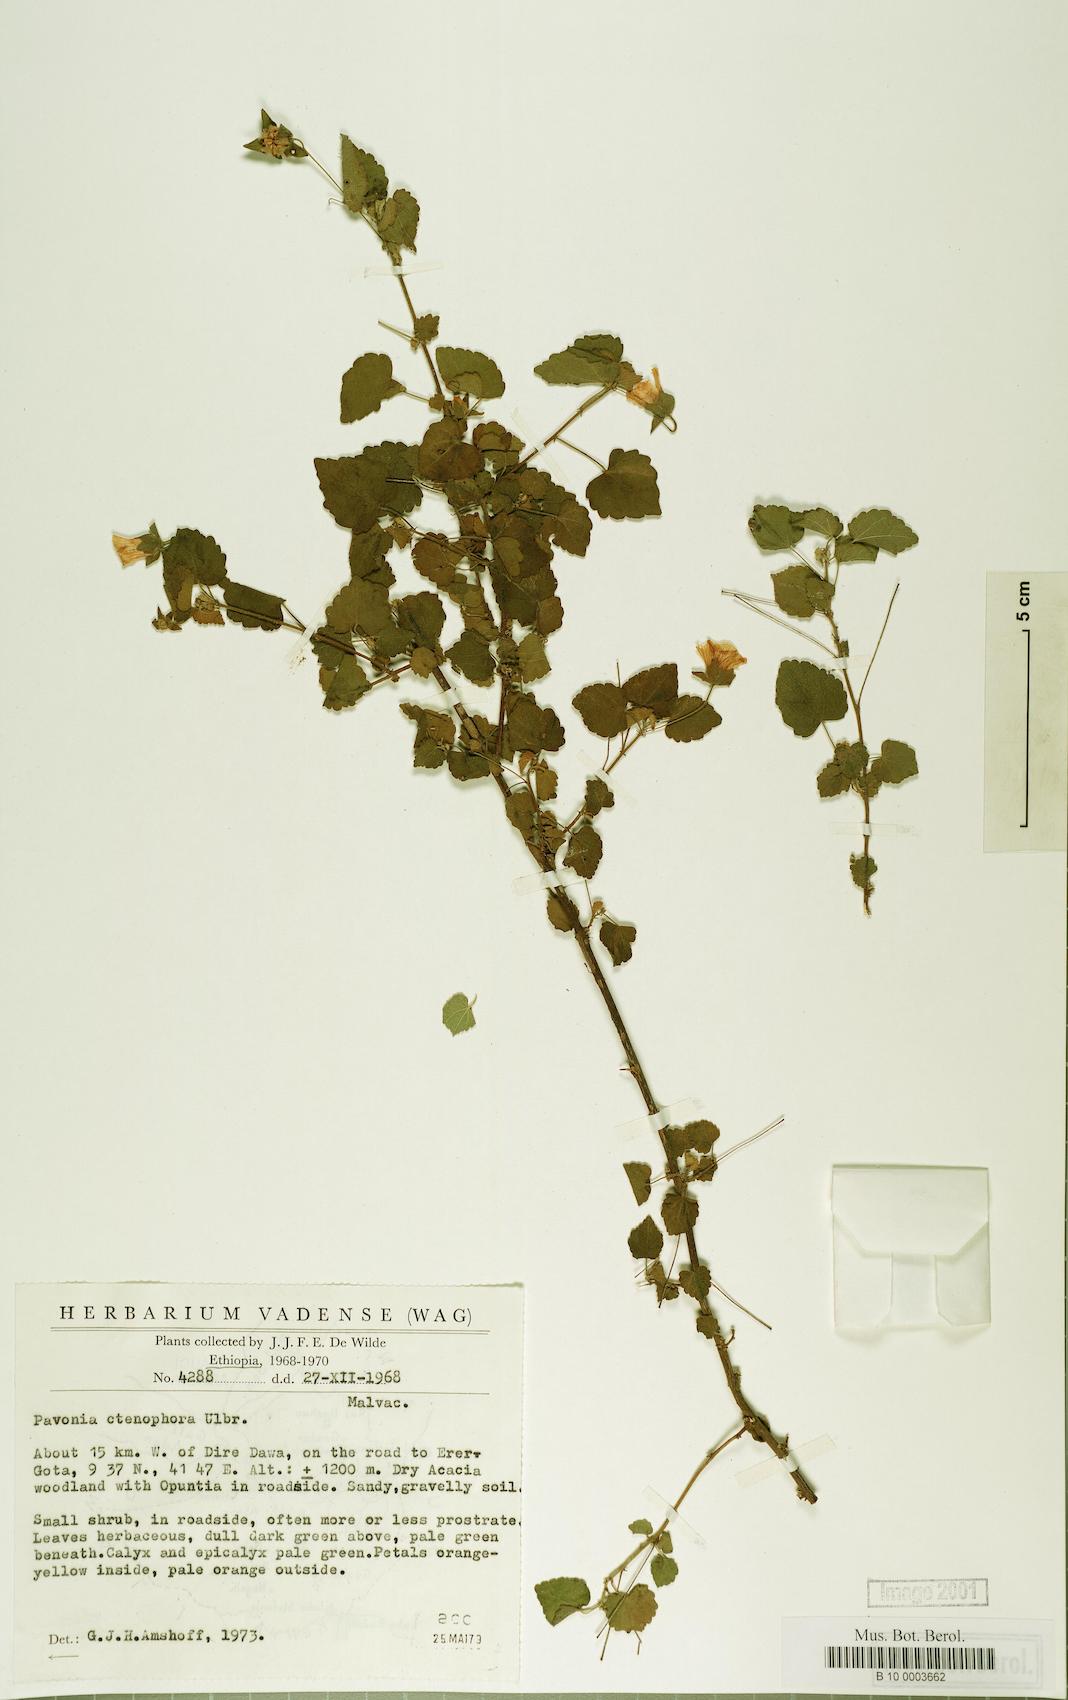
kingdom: Plantae
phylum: Tracheophyta
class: Magnoliopsida
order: Malvales
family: Malvaceae
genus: Pavonia
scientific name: Pavonia procumbens
